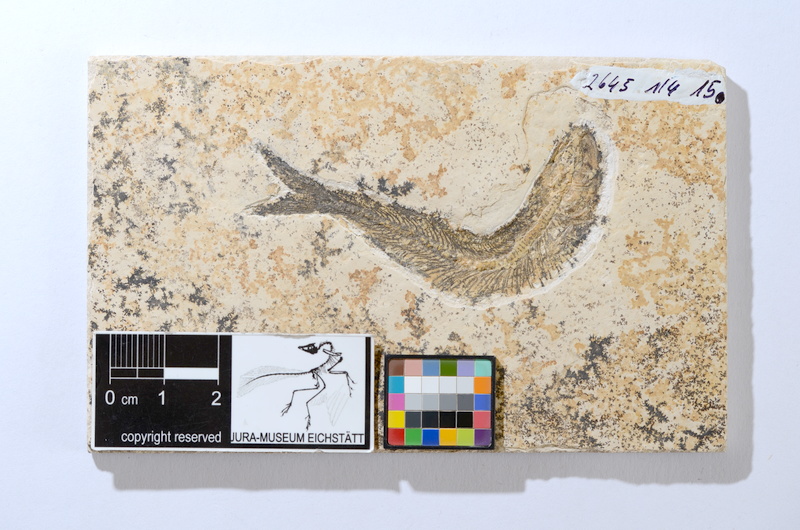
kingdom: Animalia
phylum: Chordata
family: Ascalaboidae
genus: Tharsis
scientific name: Tharsis dubius
